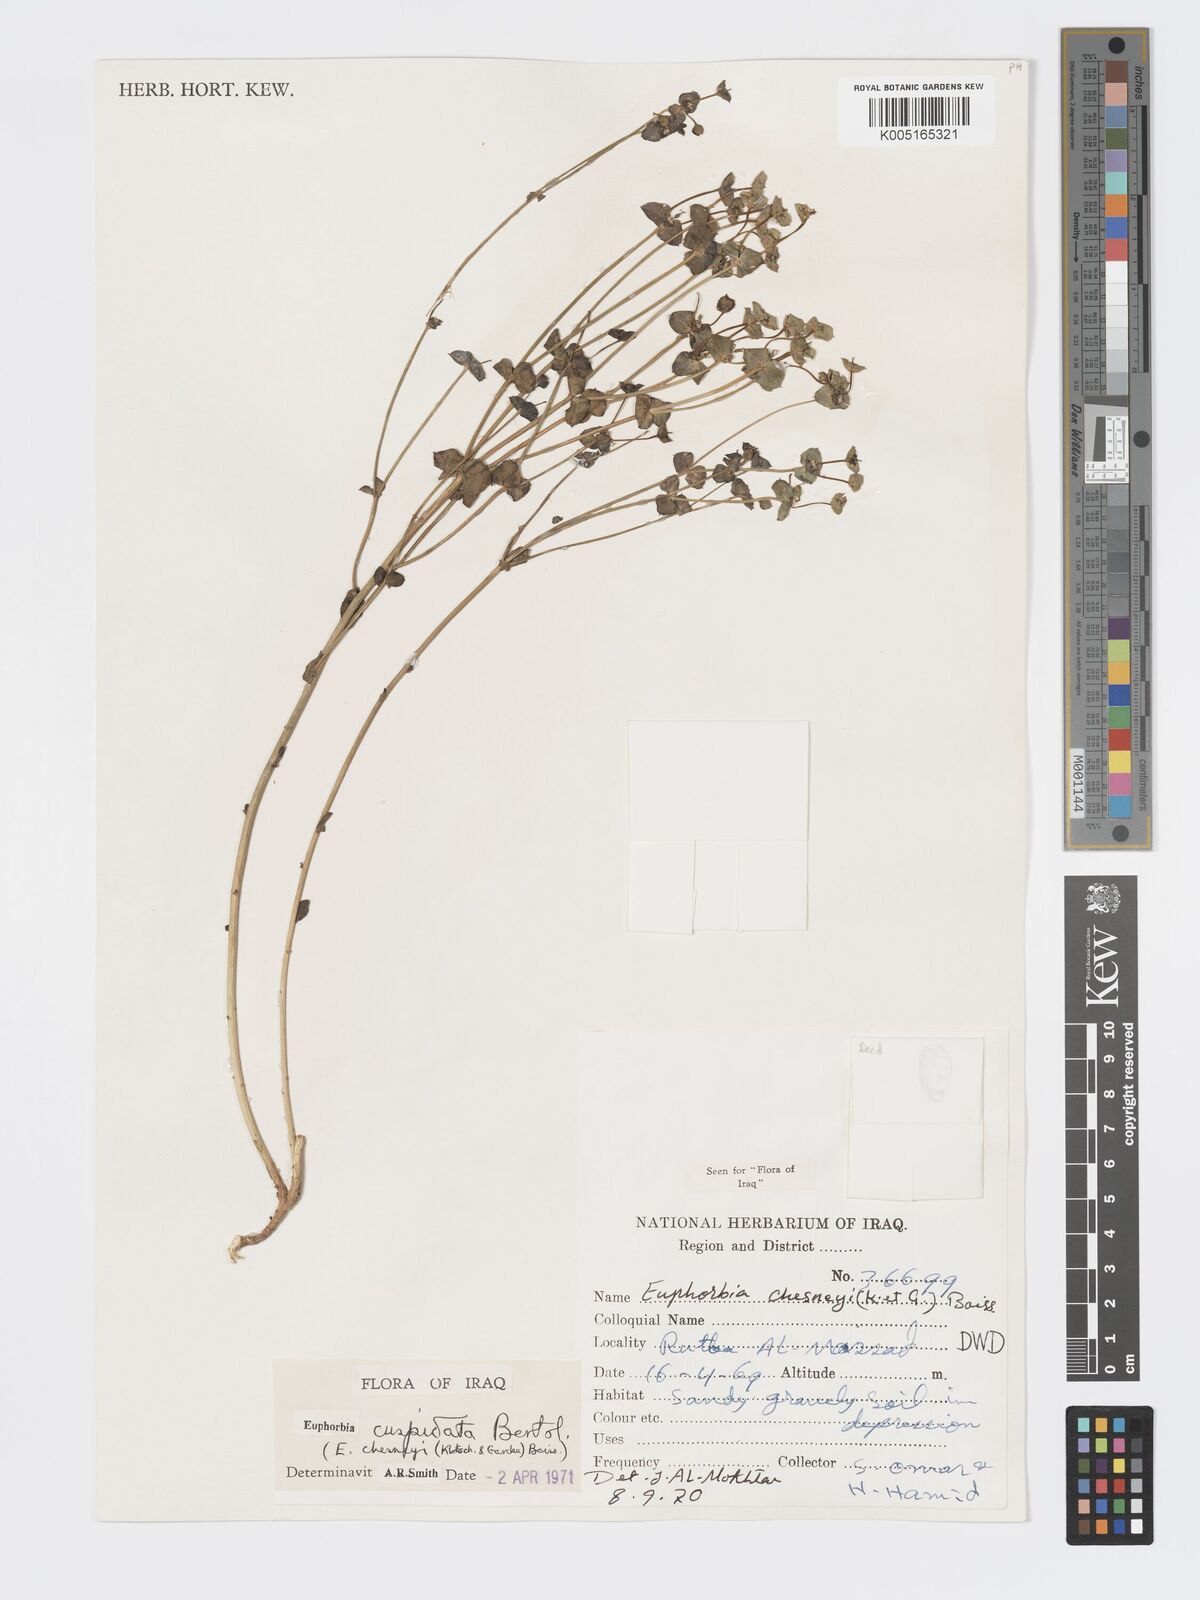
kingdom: Plantae
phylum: Tracheophyta
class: Magnoliopsida
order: Malpighiales
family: Euphorbiaceae
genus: Euphorbia
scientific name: Euphorbia cuspidata
